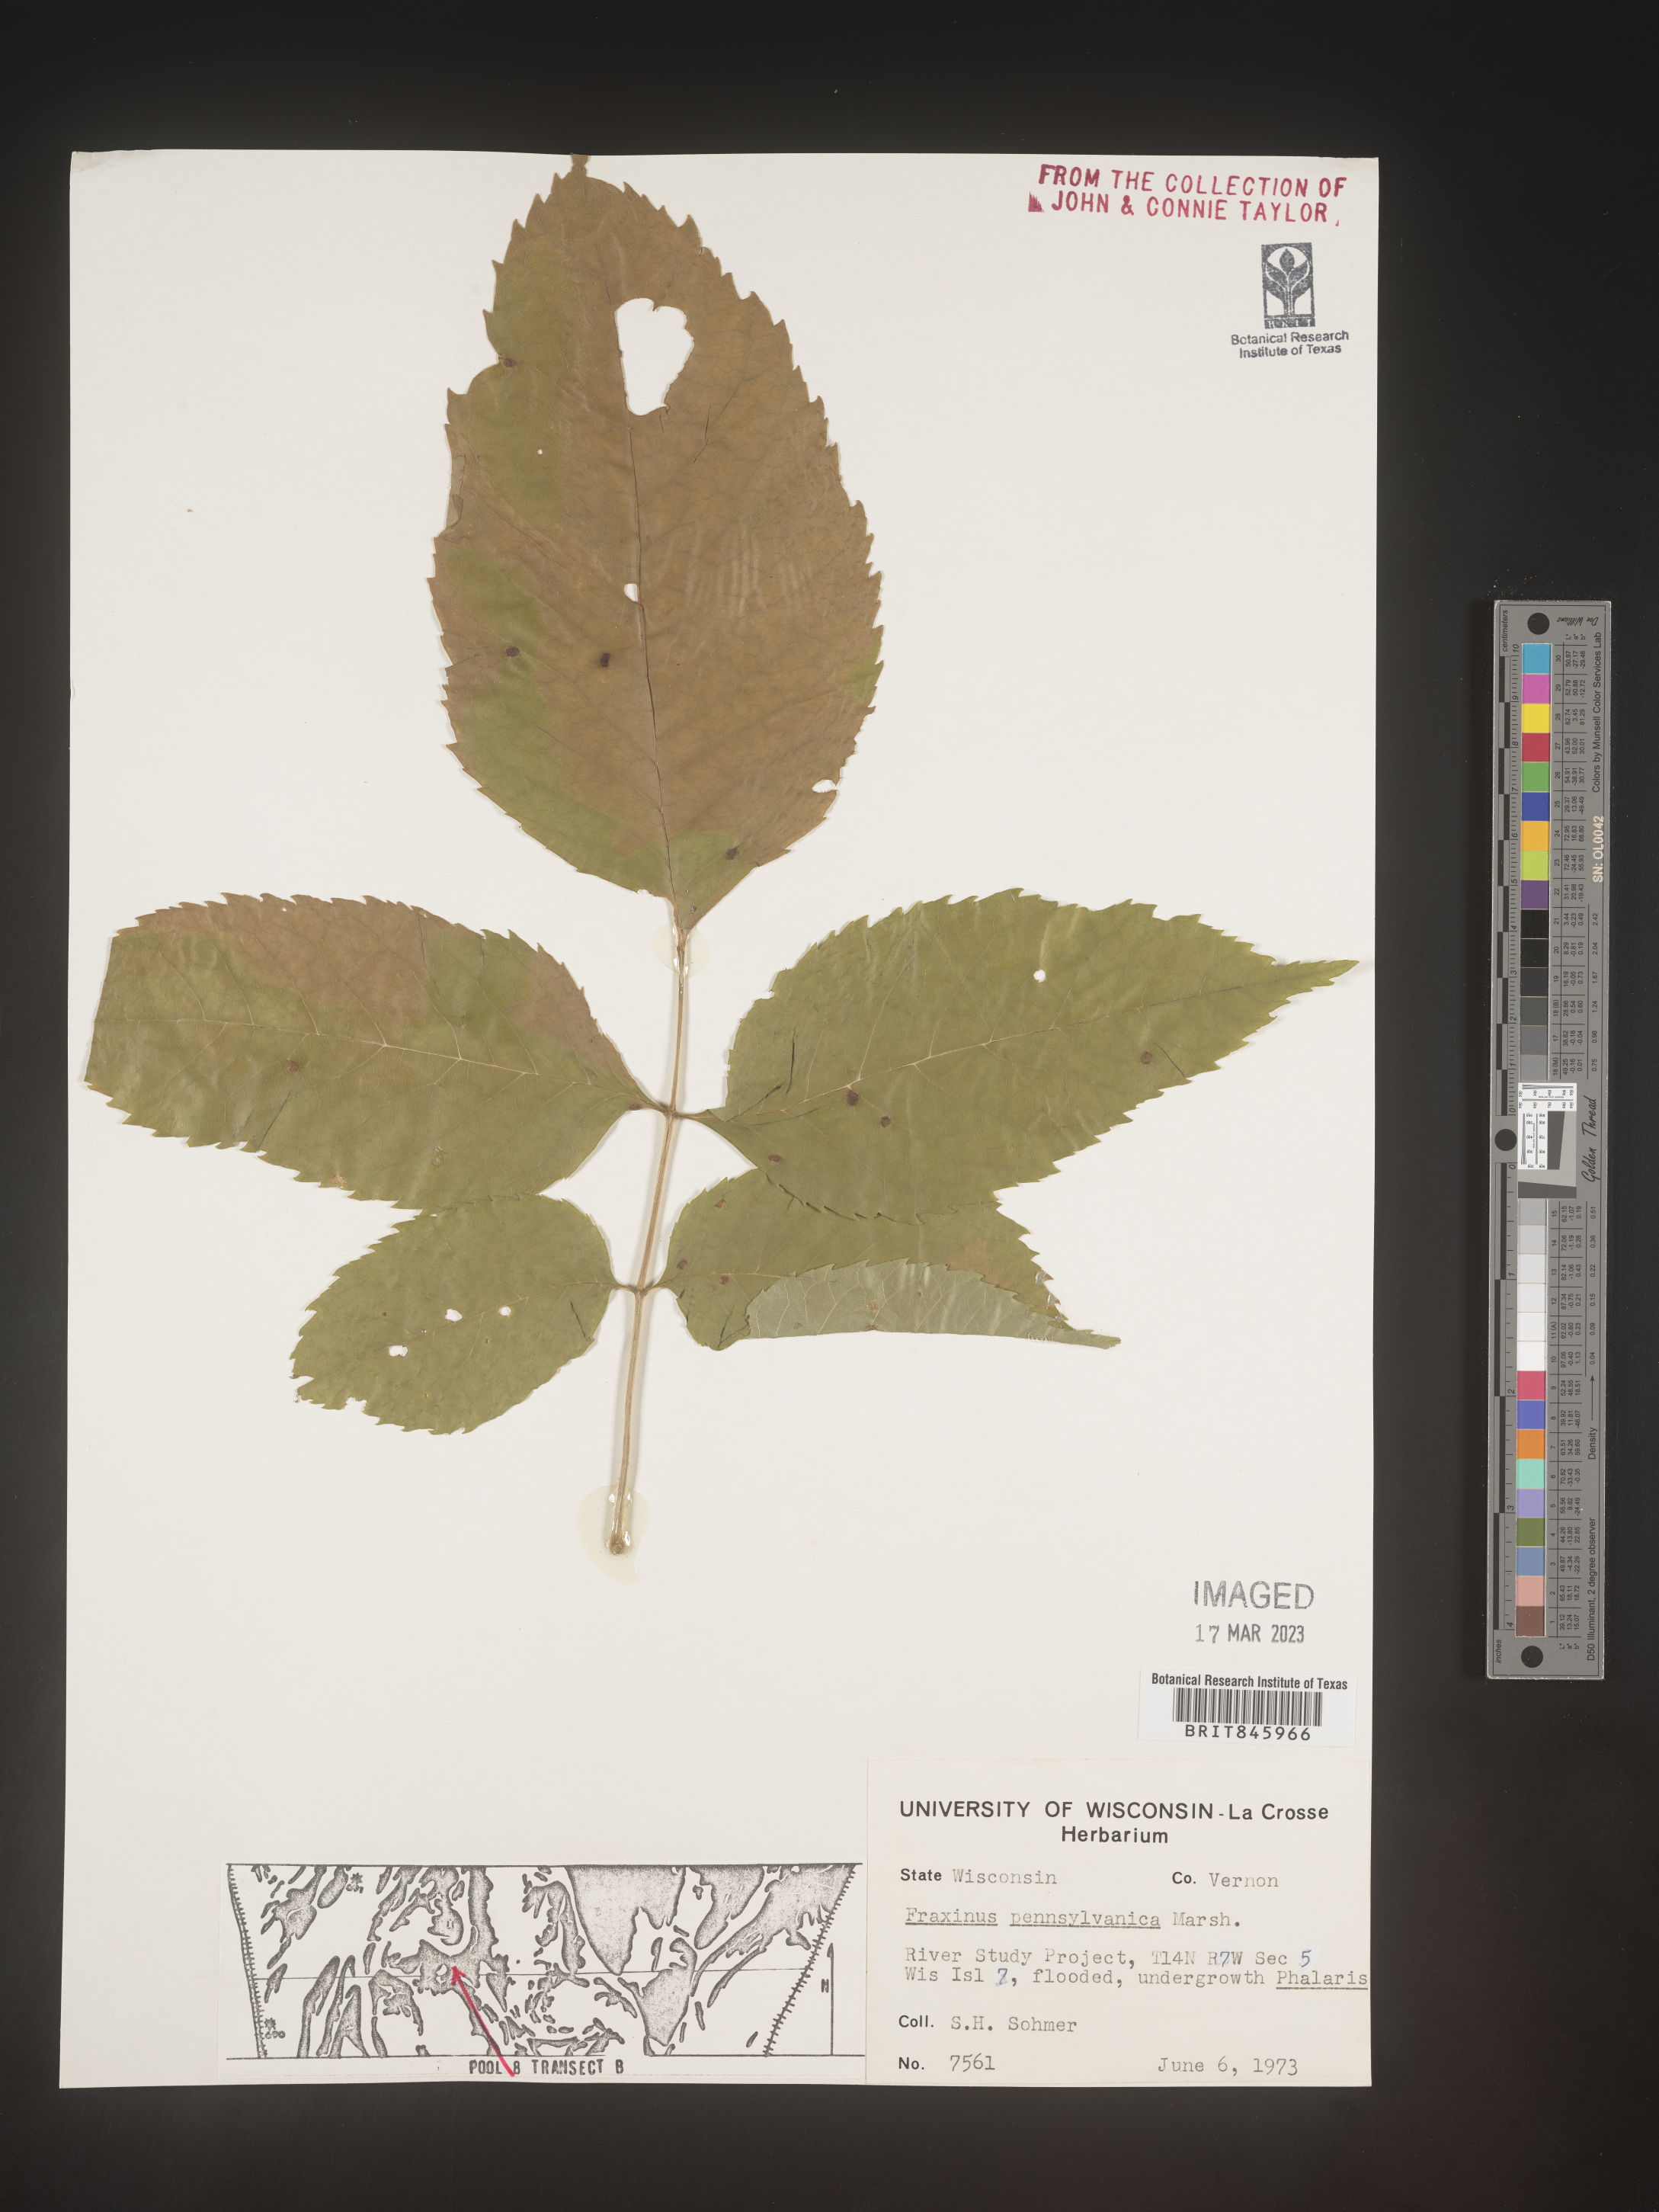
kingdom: Plantae
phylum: Tracheophyta
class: Magnoliopsida
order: Lamiales
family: Oleaceae
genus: Fraxinus
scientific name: Fraxinus
